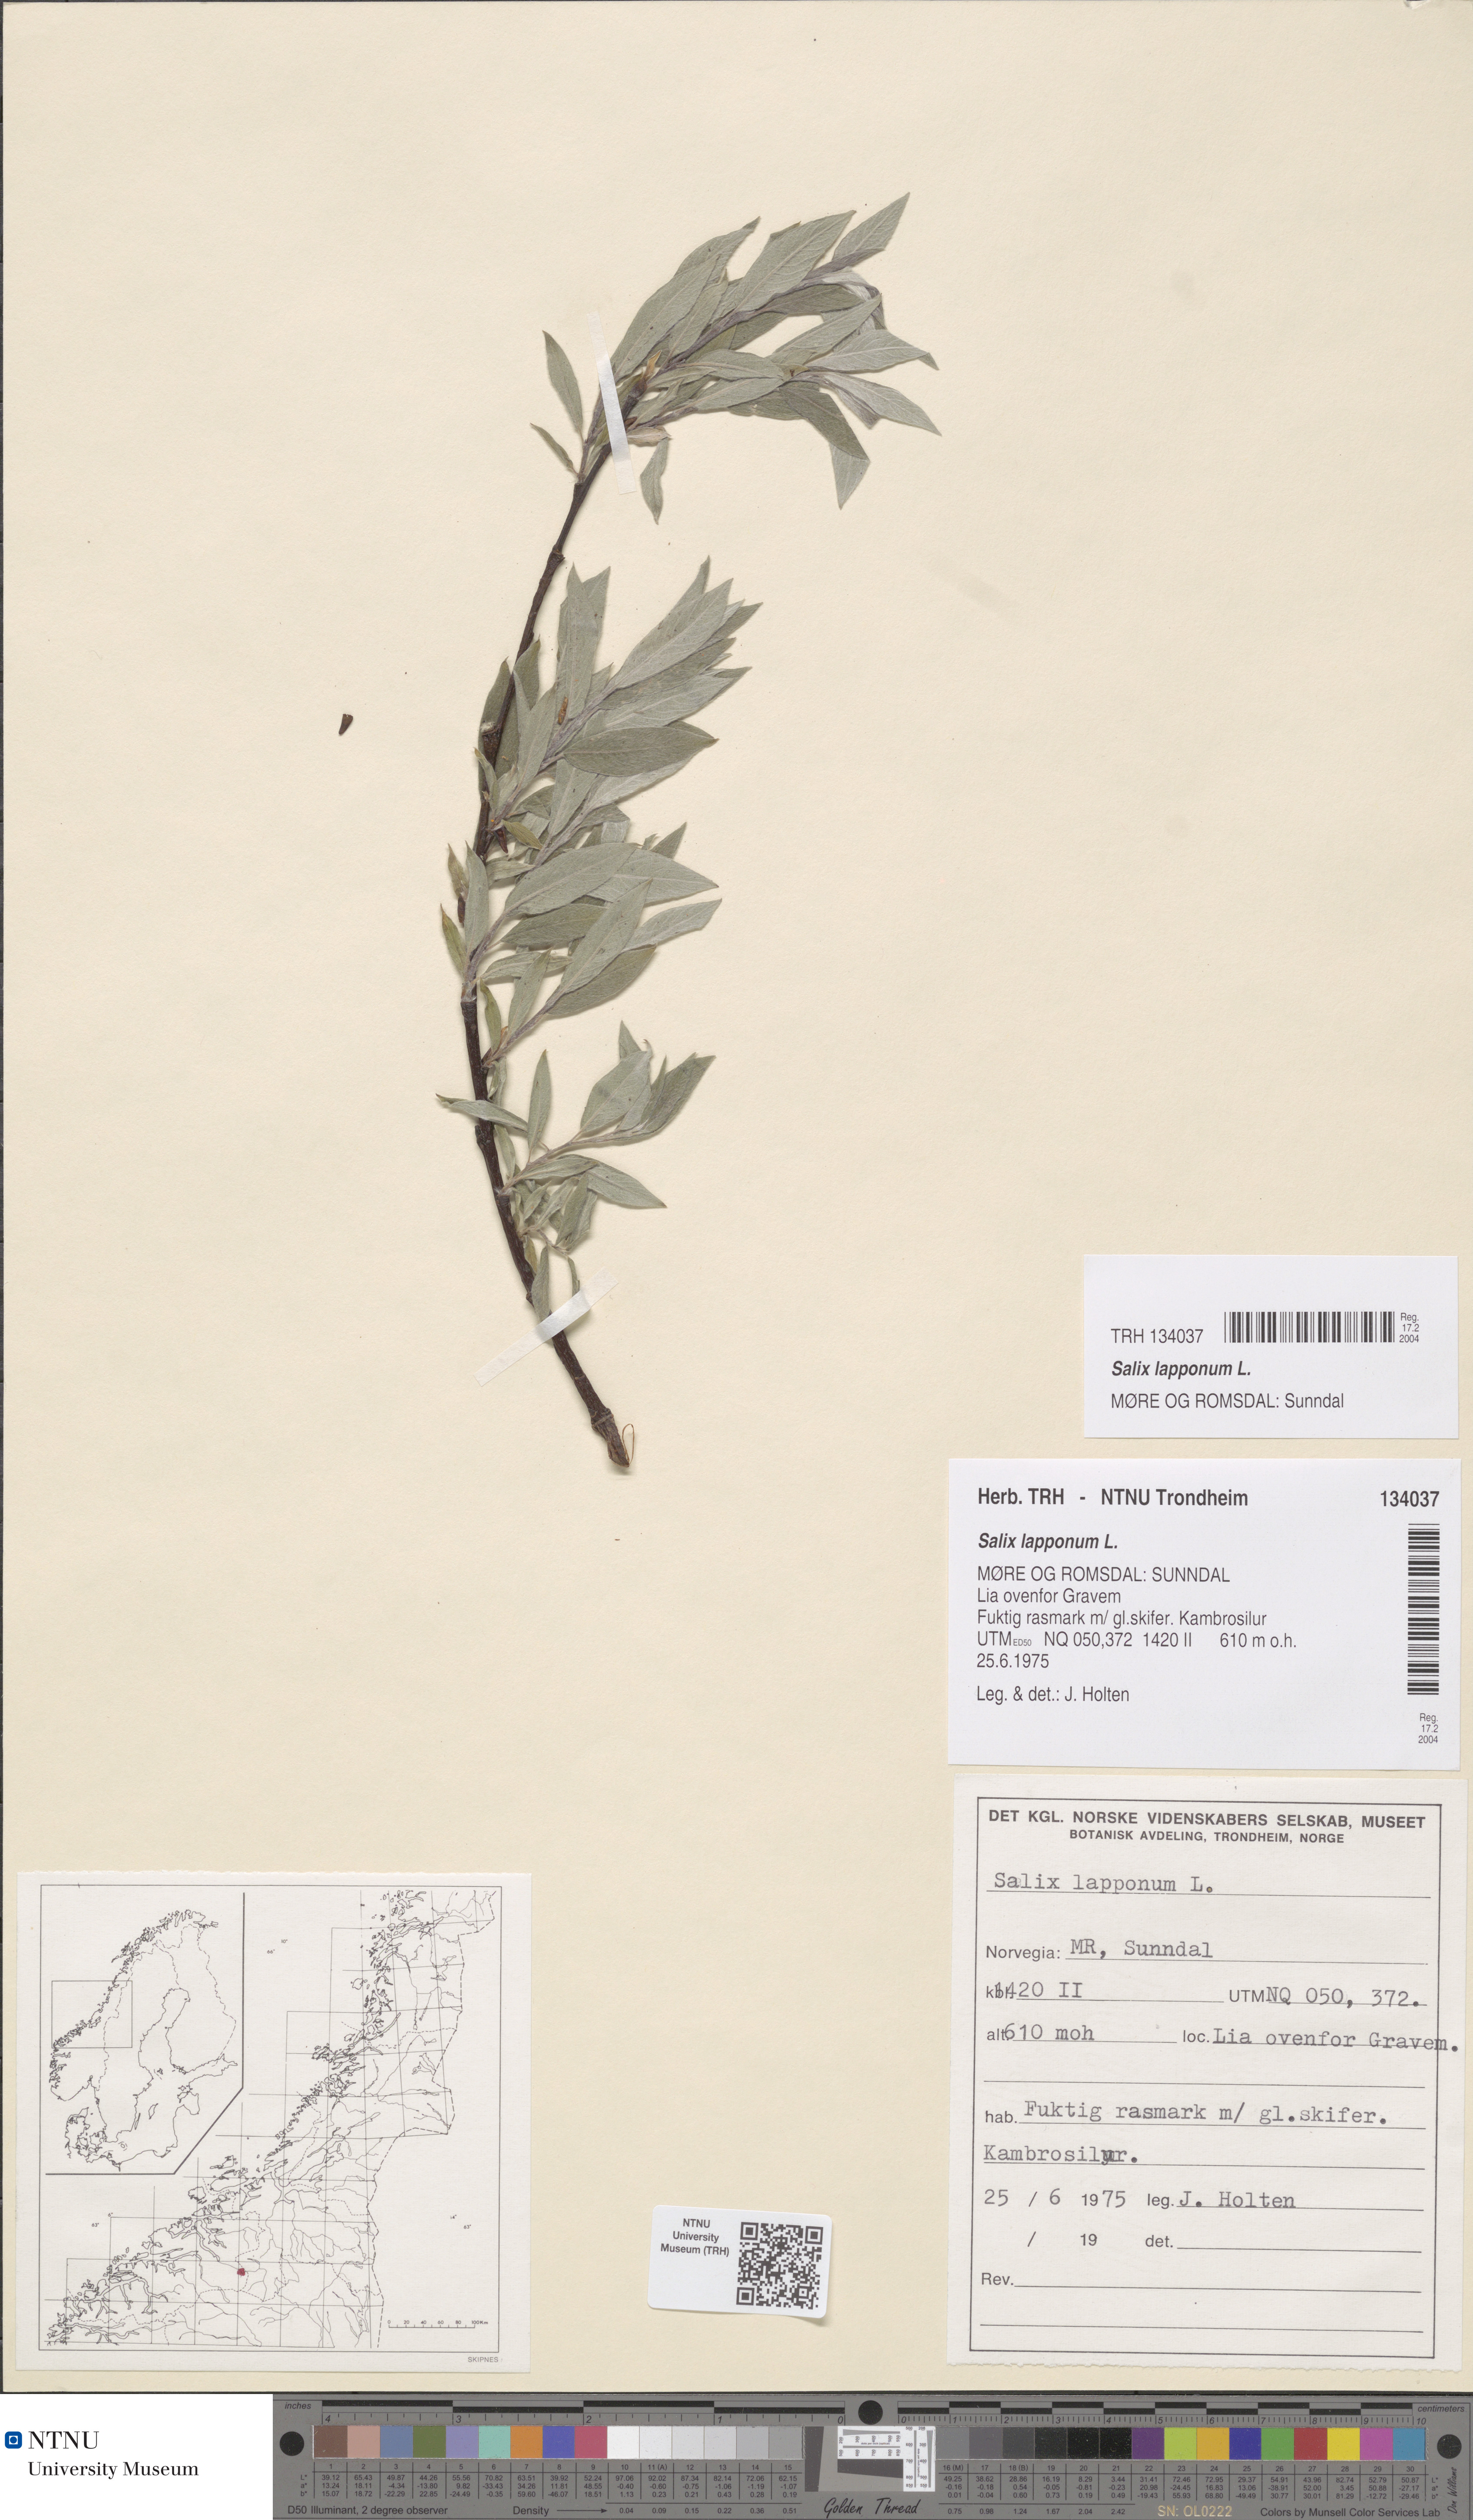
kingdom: Plantae
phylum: Tracheophyta
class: Magnoliopsida
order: Malpighiales
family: Salicaceae
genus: Salix
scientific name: Salix lapponum
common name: Downy willow
